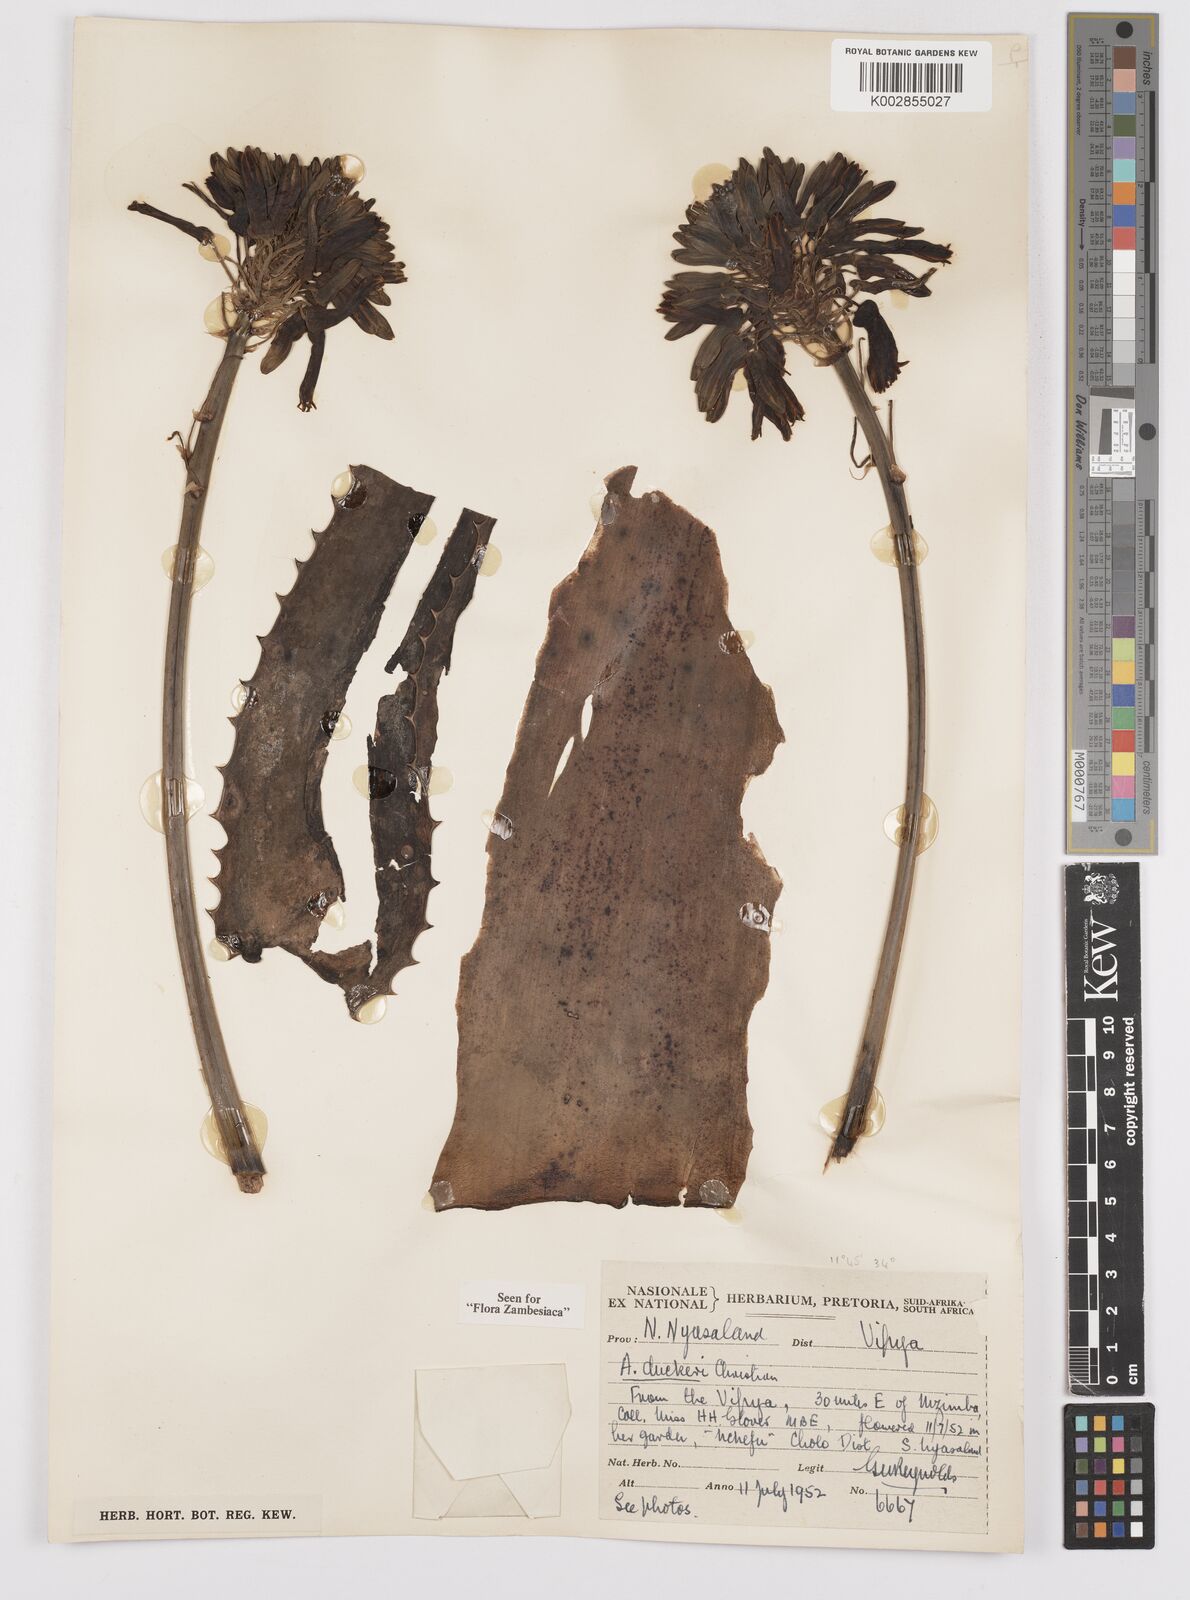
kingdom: Plantae
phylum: Tracheophyta
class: Liliopsida
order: Asparagales
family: Asphodelaceae
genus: Aloe
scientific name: Aloe duckeri
